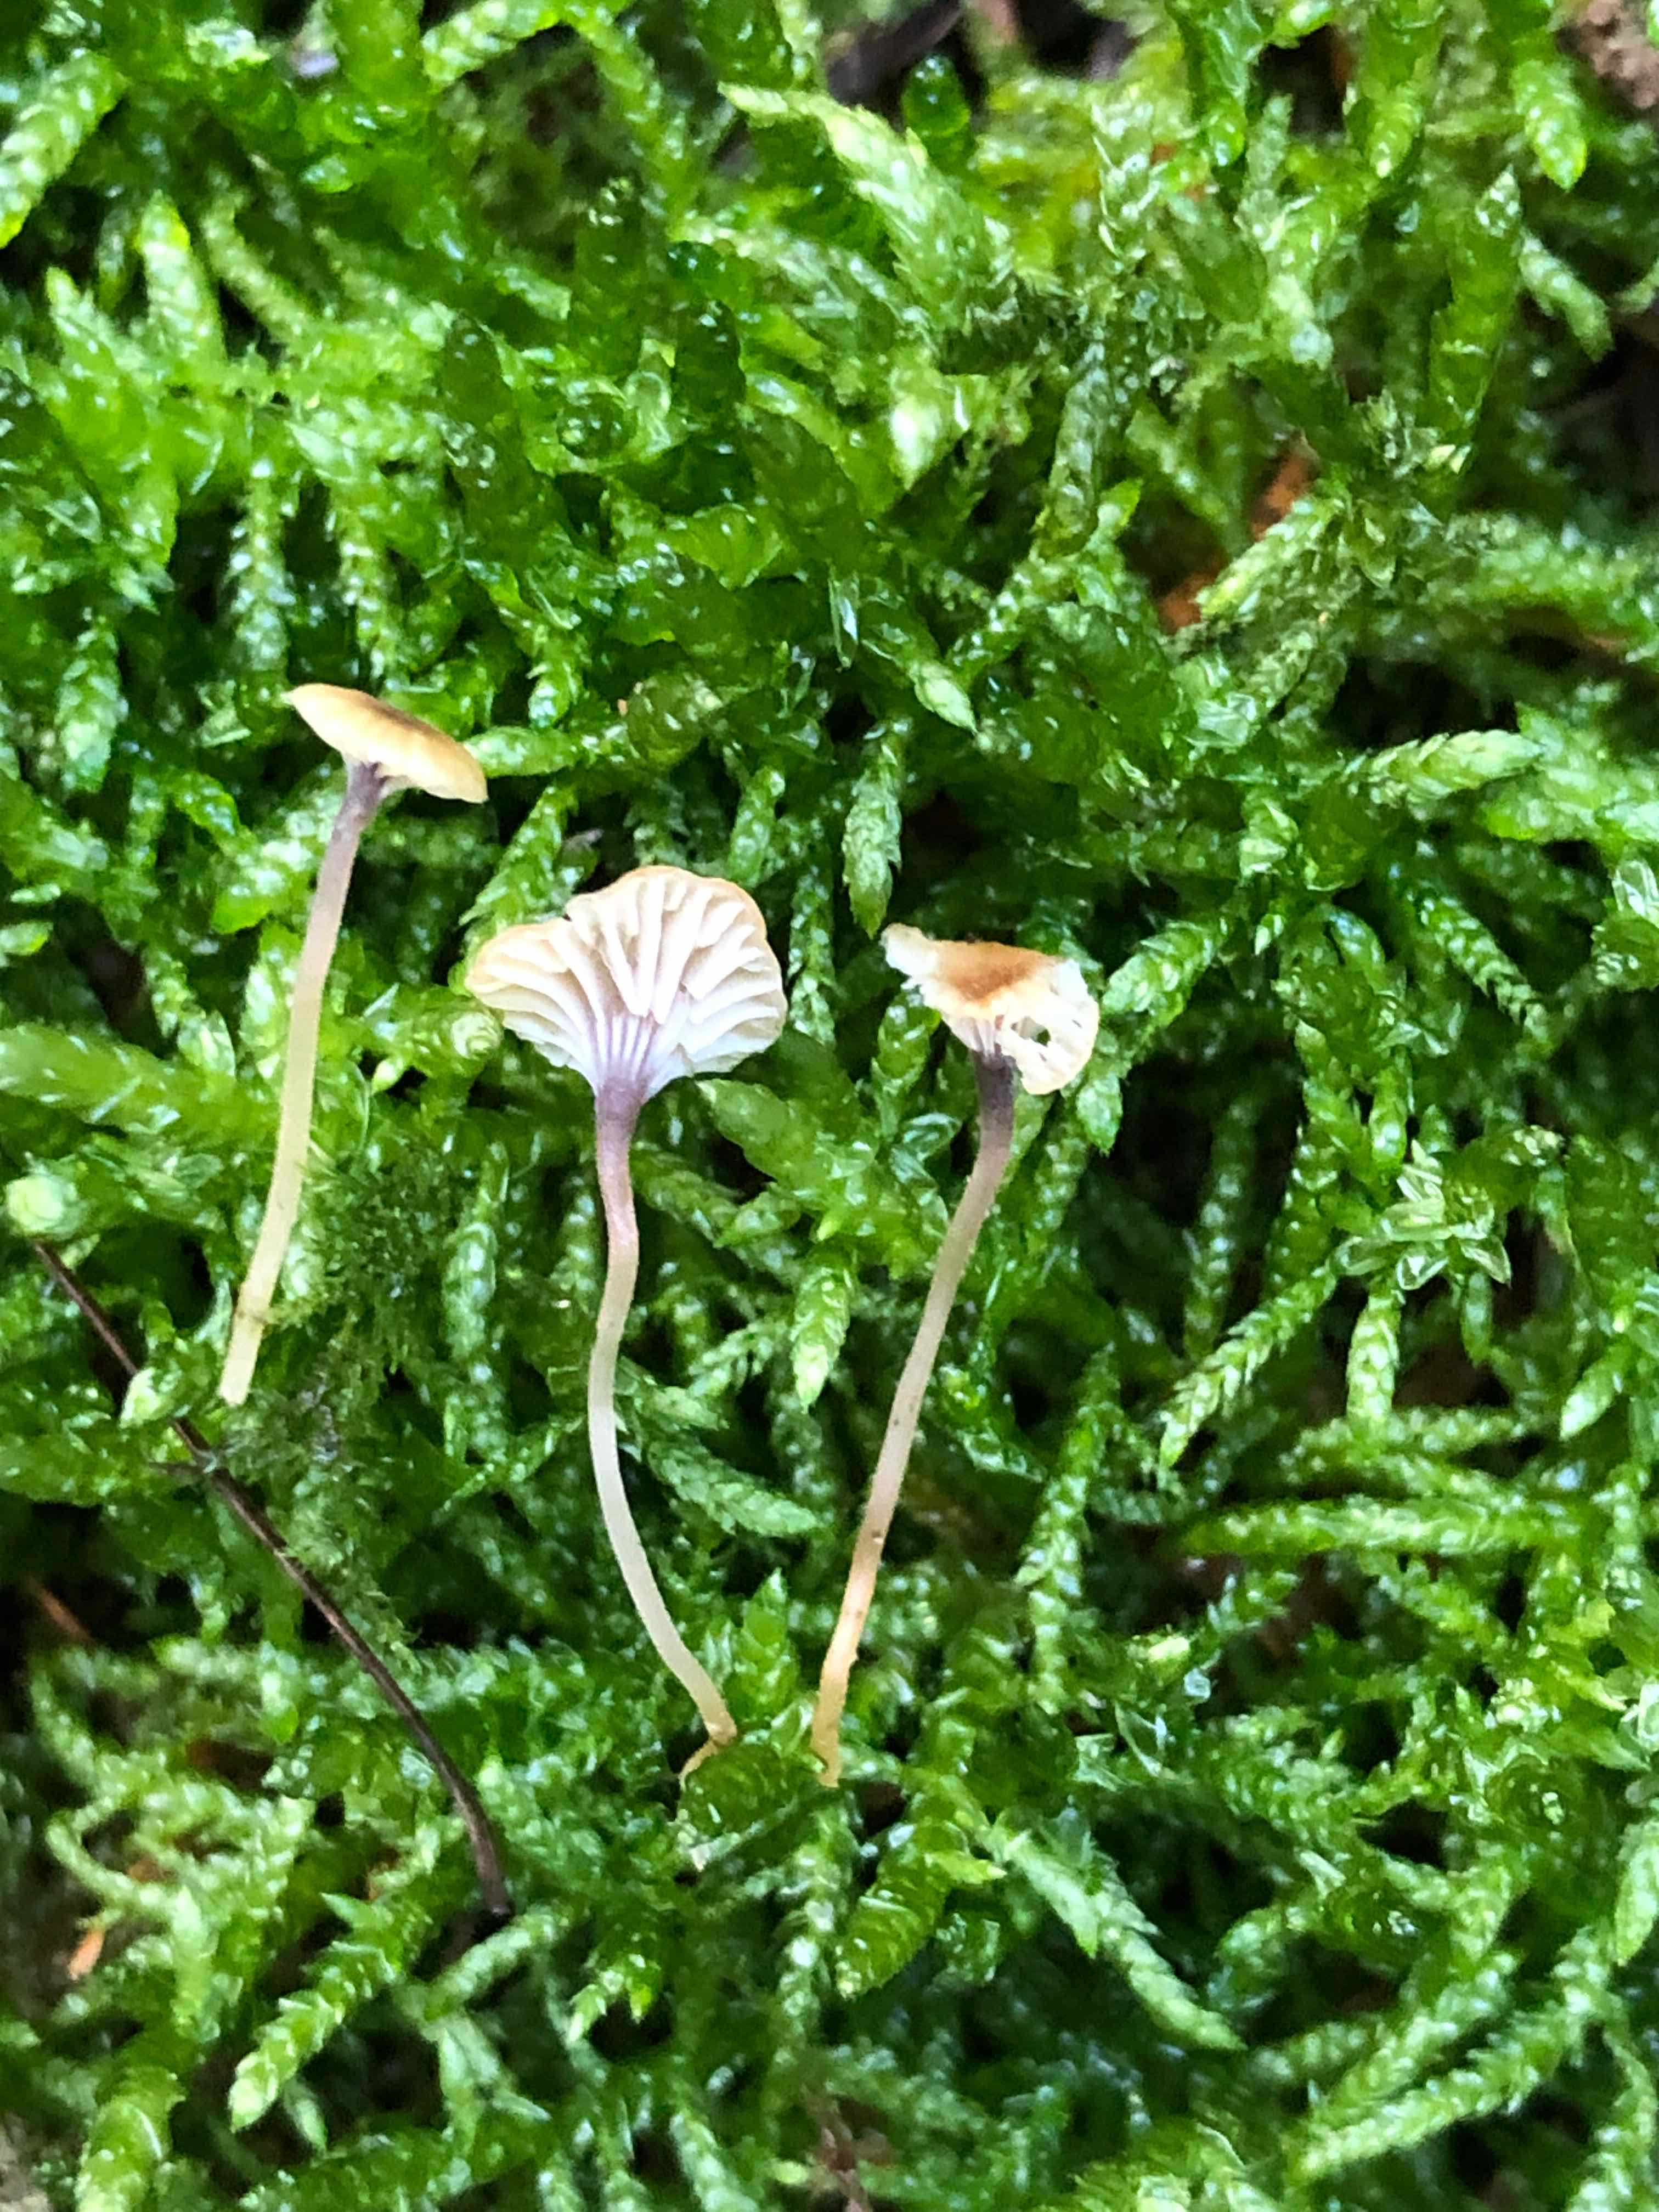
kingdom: Fungi
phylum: Basidiomycota
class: Agaricomycetes
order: Hymenochaetales
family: Rickenellaceae
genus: Rickenella
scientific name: Rickenella swartzii
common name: finstokket mosnavlehat
